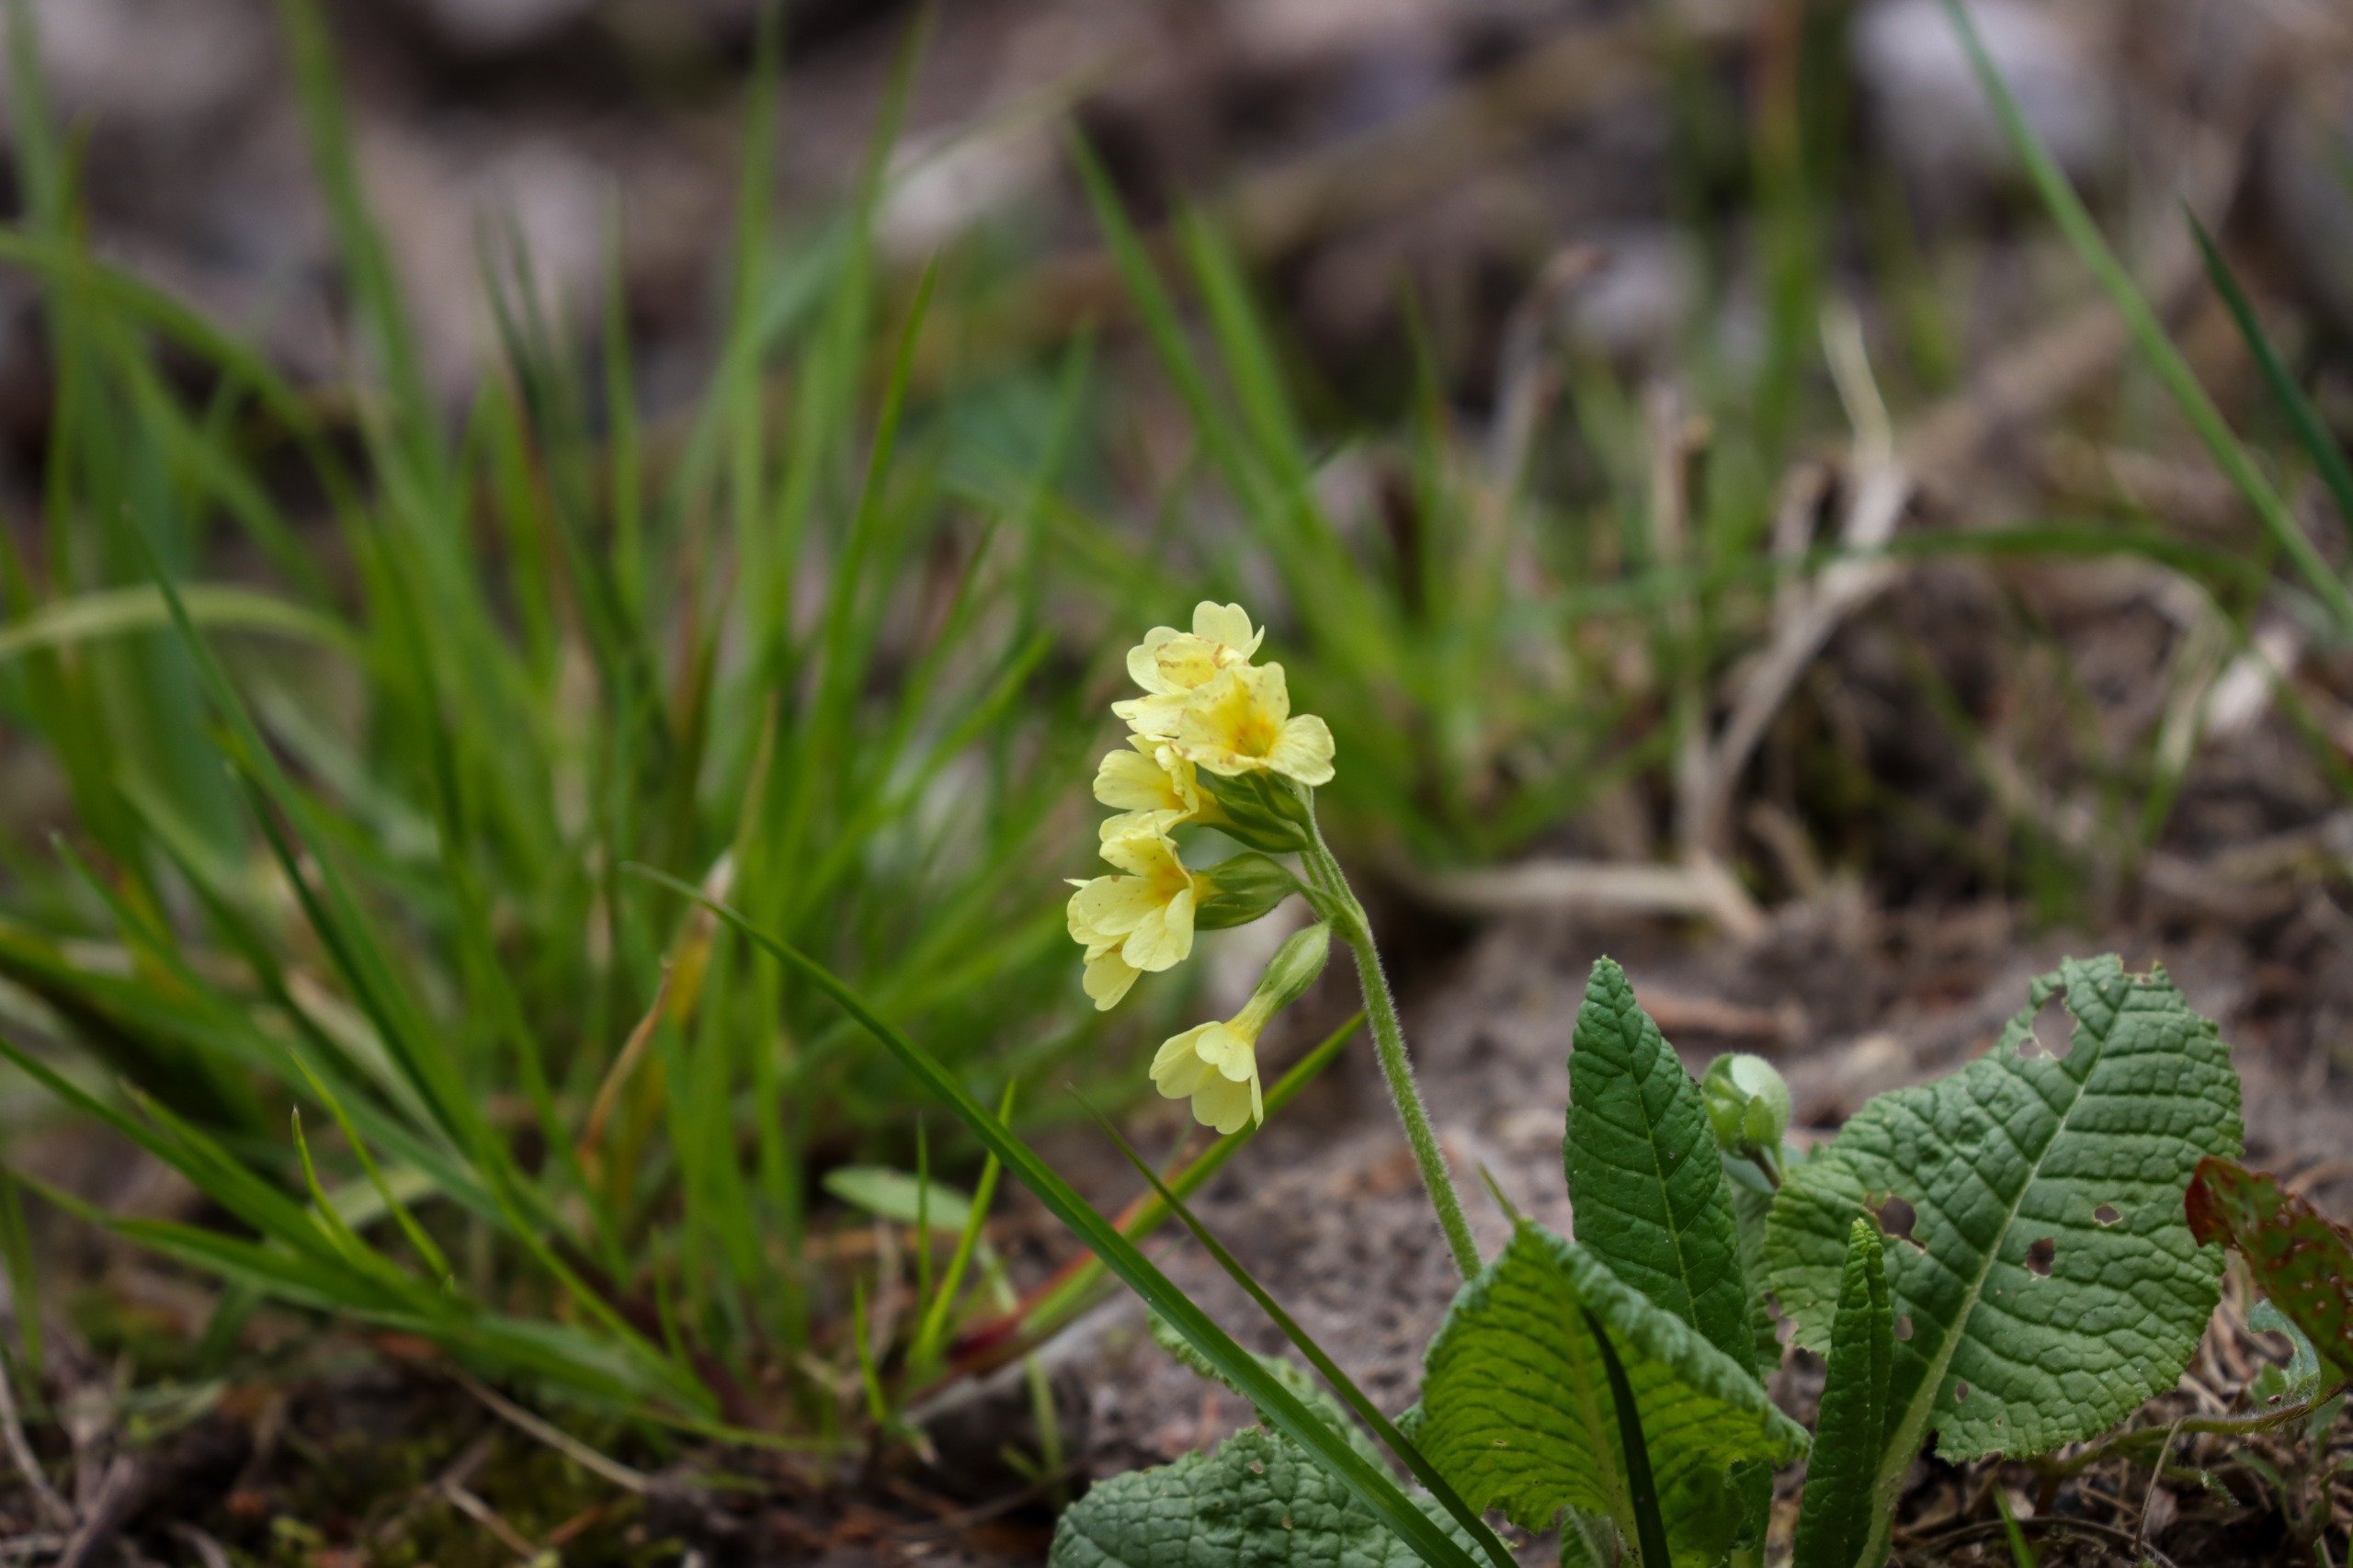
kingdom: Plantae
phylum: Tracheophyta
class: Magnoliopsida
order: Ericales
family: Primulaceae
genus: Primula
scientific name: Primula elatior
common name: Fladkravet kodriver
